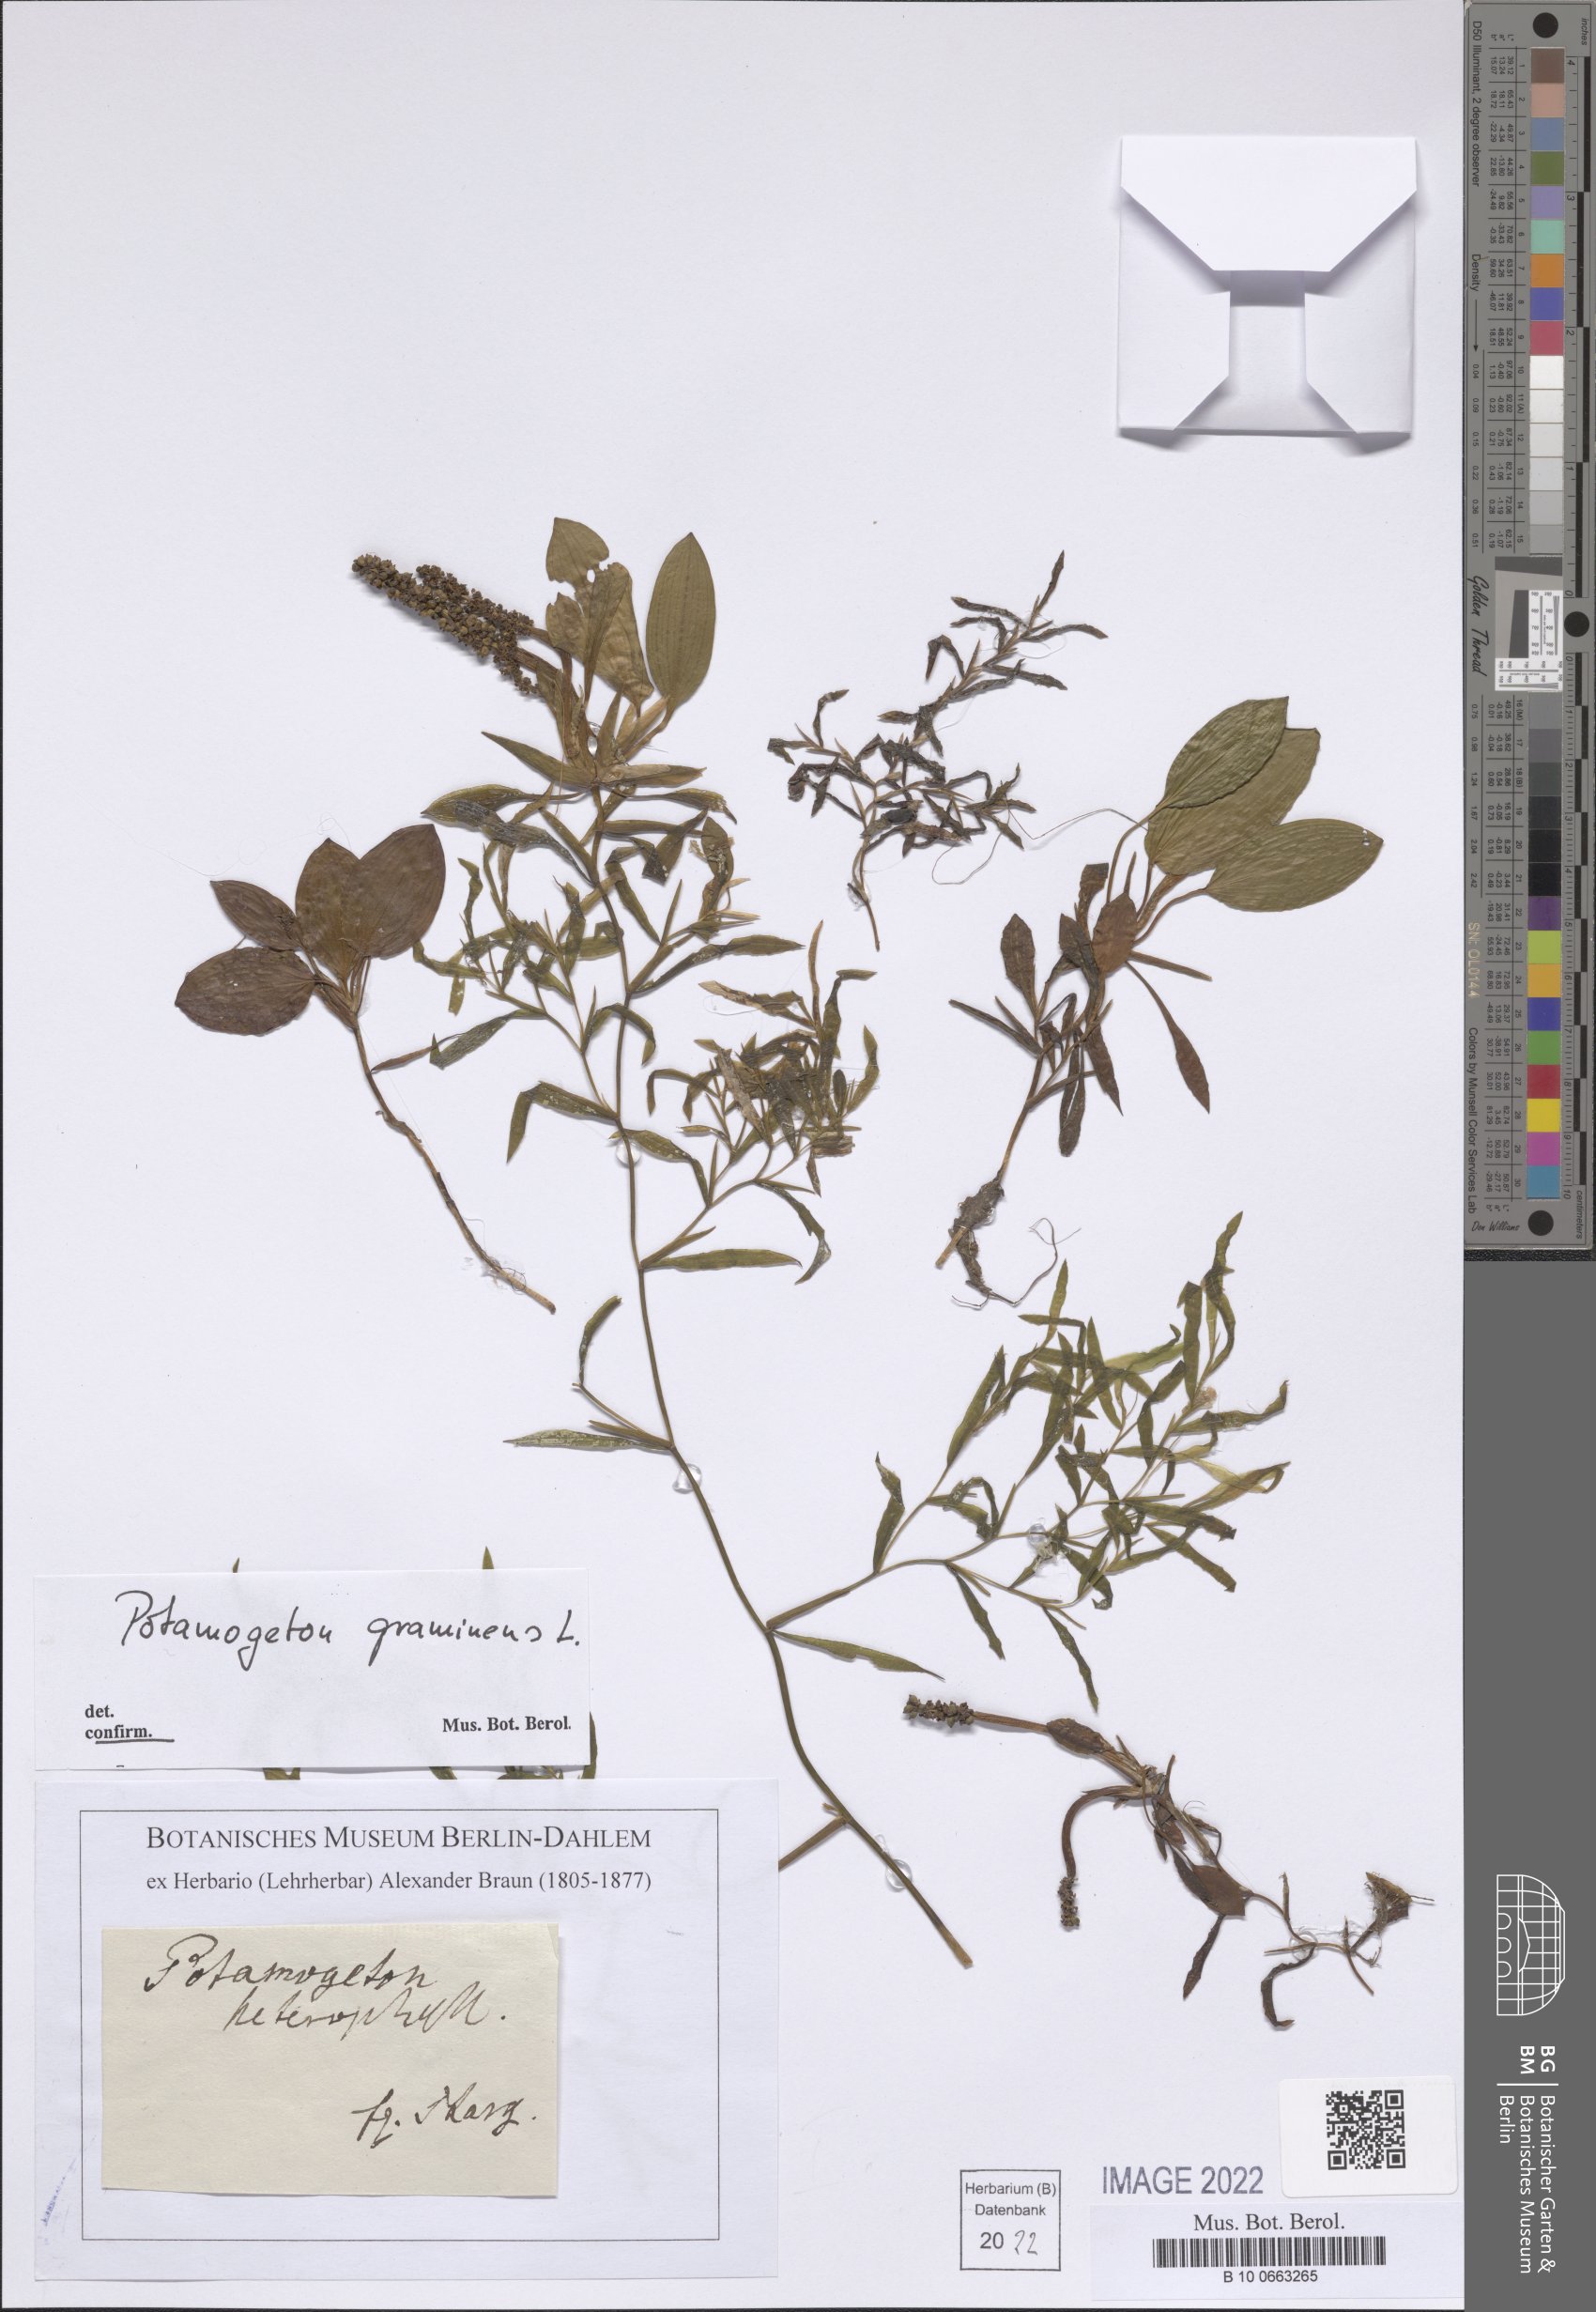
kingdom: Plantae
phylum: Tracheophyta
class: Liliopsida
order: Alismatales
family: Potamogetonaceae
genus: Potamogeton
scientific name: Potamogeton gramineus
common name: Various-leaved pondweed
